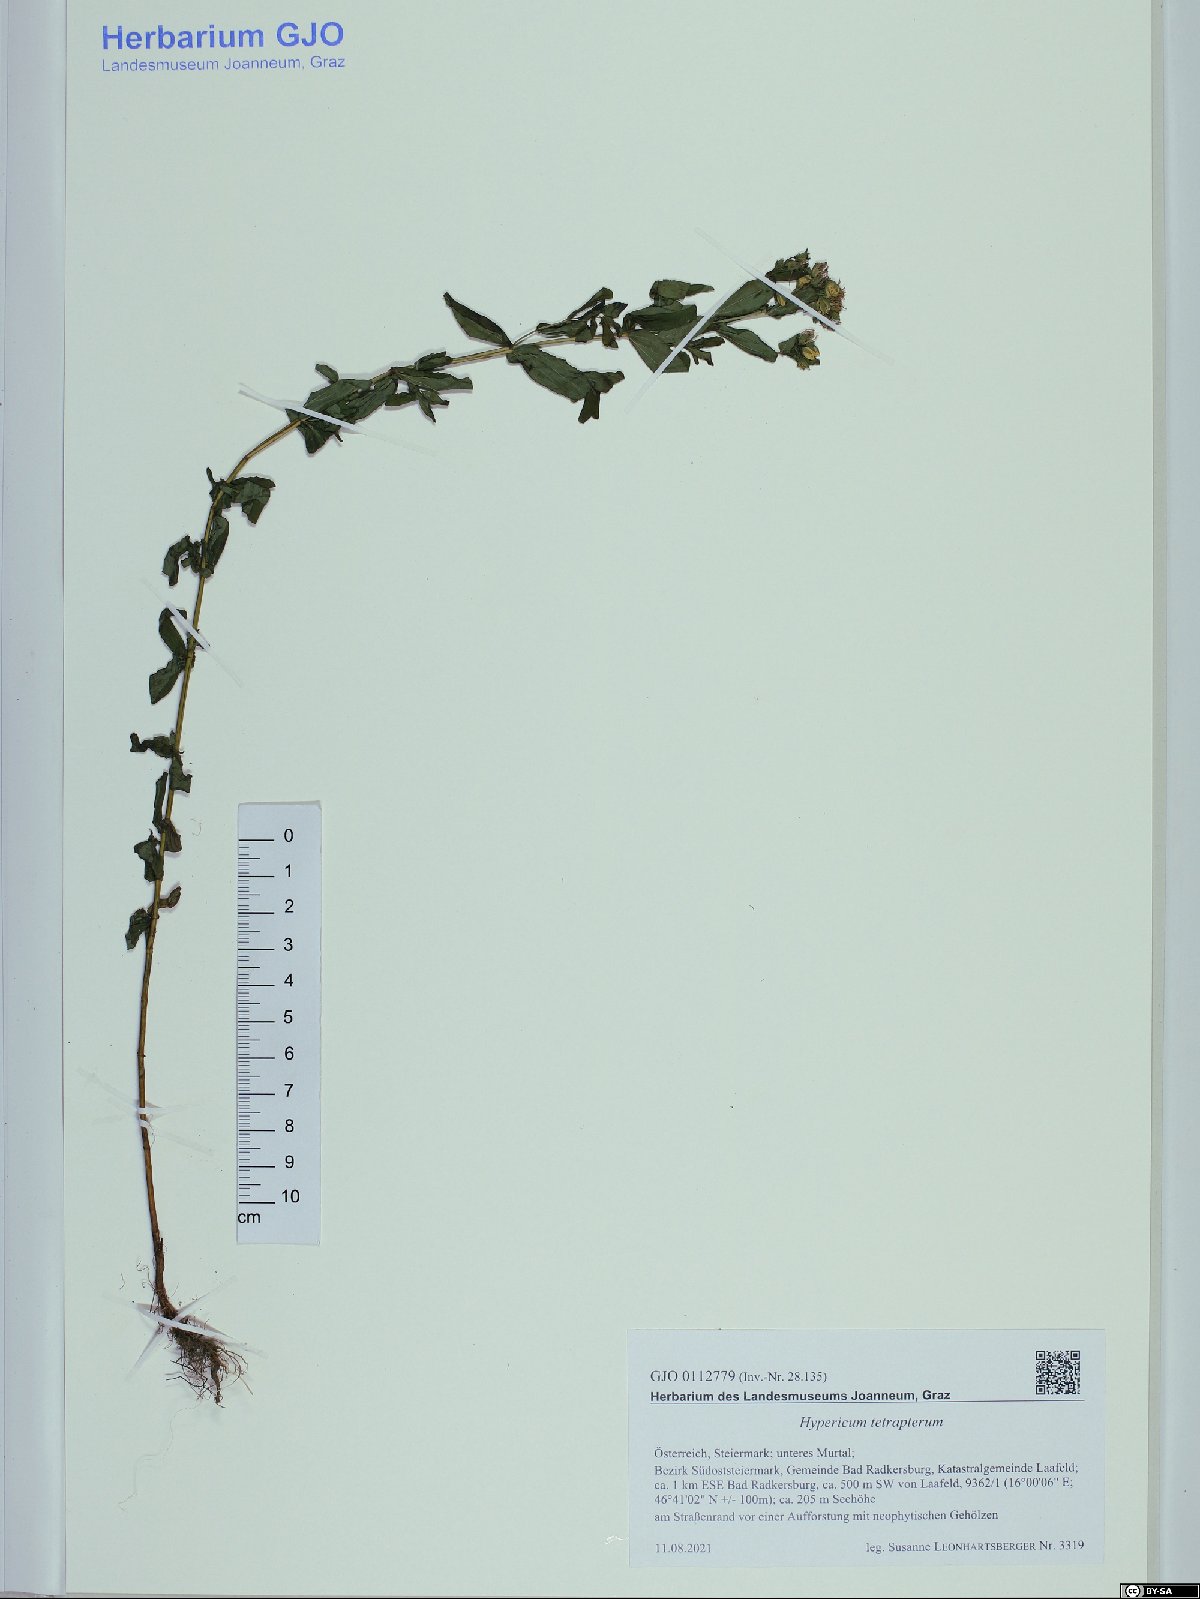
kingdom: Plantae
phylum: Tracheophyta
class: Magnoliopsida
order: Malpighiales
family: Hypericaceae
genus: Hypericum
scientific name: Hypericum tetrapterum
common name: Square-stalked st. john's-wort
